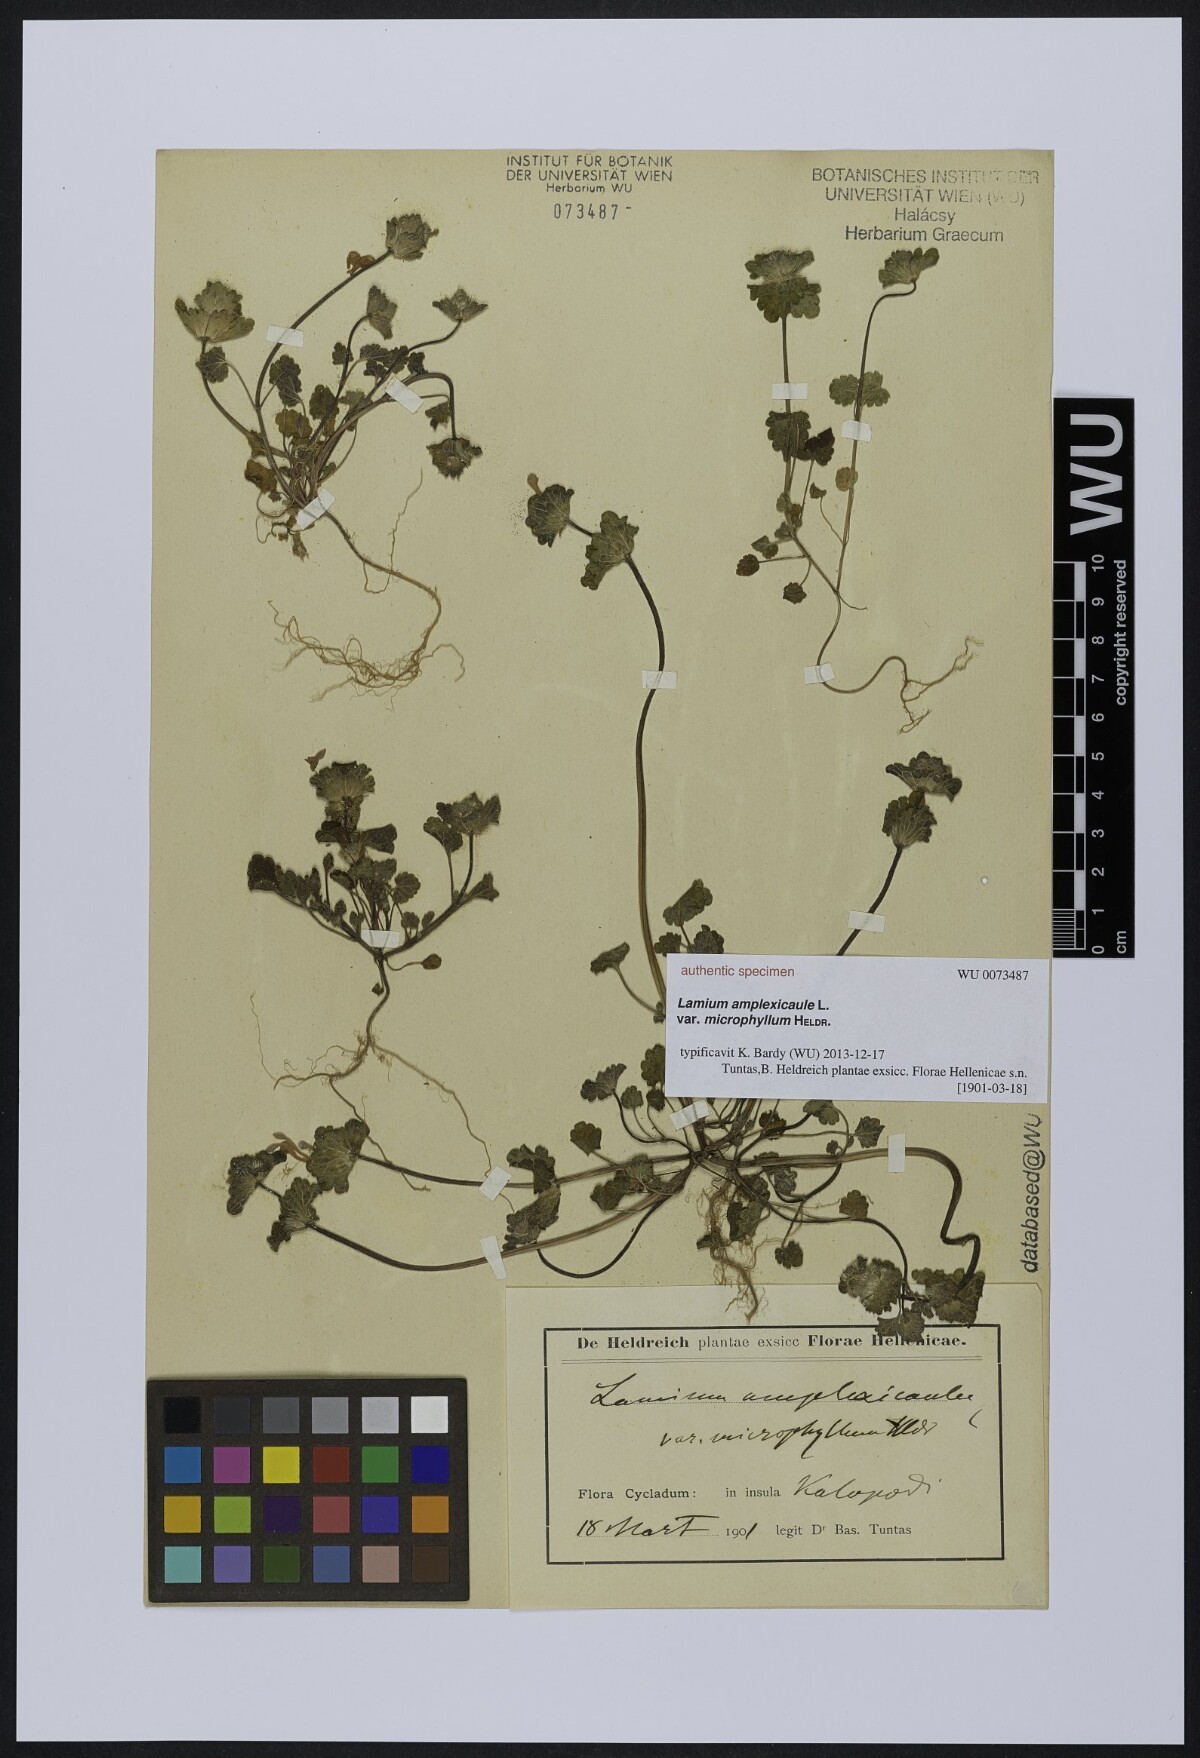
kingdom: Plantae
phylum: Tracheophyta
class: Magnoliopsida
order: Lamiales
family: Lamiaceae
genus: Lamium
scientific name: Lamium amplexicaule
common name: Henbit dead-nettle
